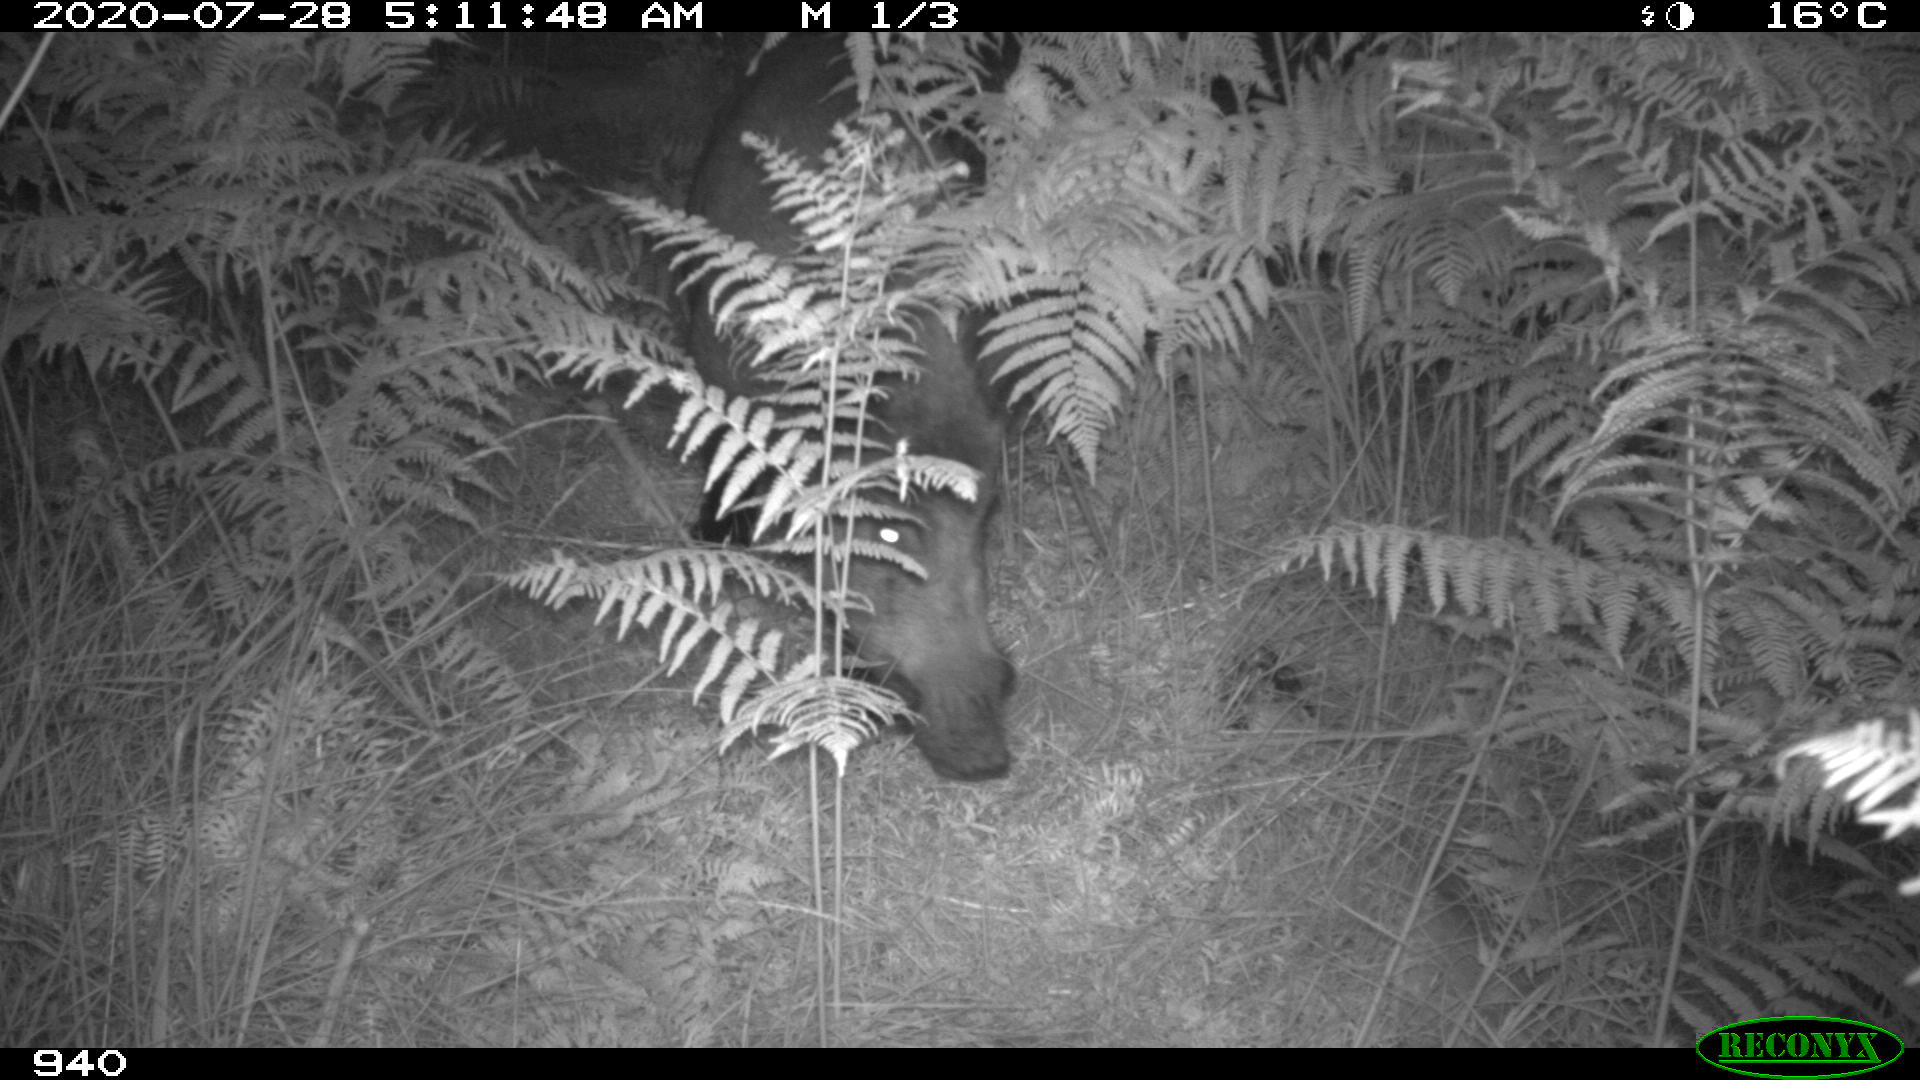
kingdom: Animalia
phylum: Chordata
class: Mammalia
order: Artiodactyla
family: Suidae
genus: Sus
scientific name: Sus scrofa
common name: Wild boar
